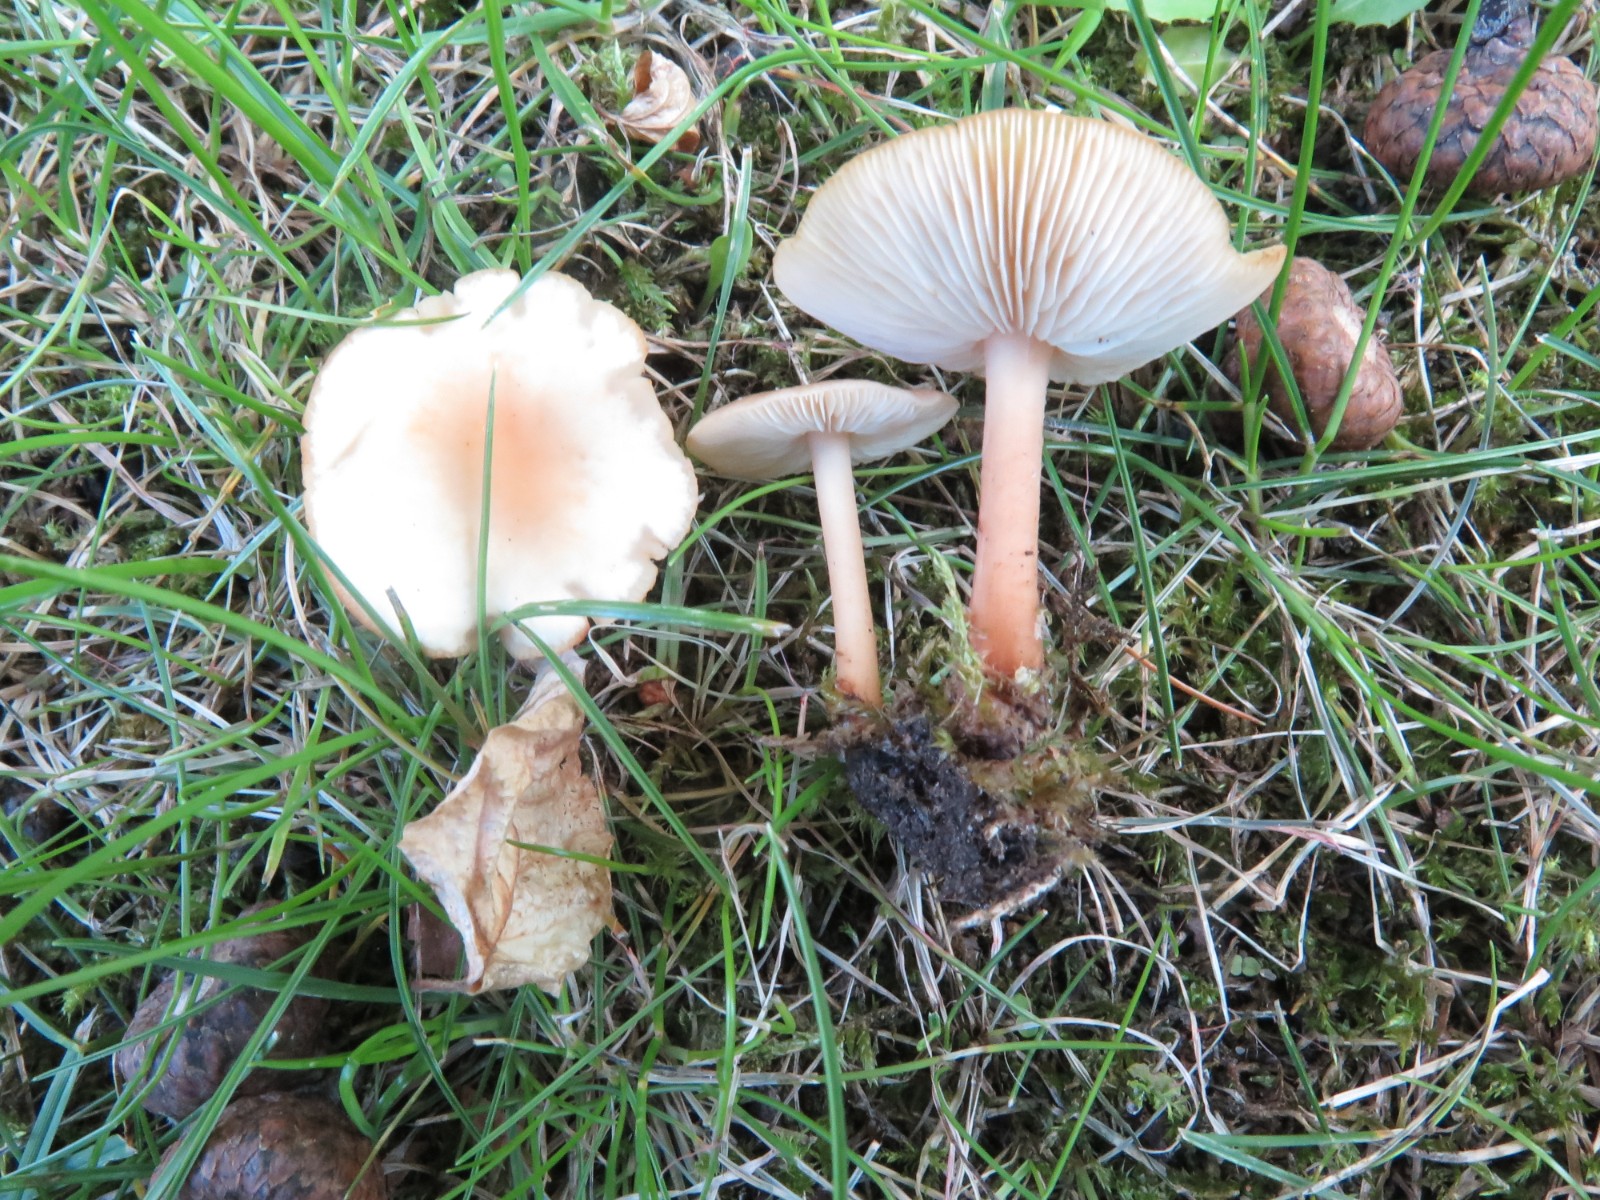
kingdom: Fungi
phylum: Basidiomycota
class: Agaricomycetes
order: Agaricales
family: Omphalotaceae
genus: Gymnopus
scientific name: Gymnopus aquosus
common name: bleg fladhat
